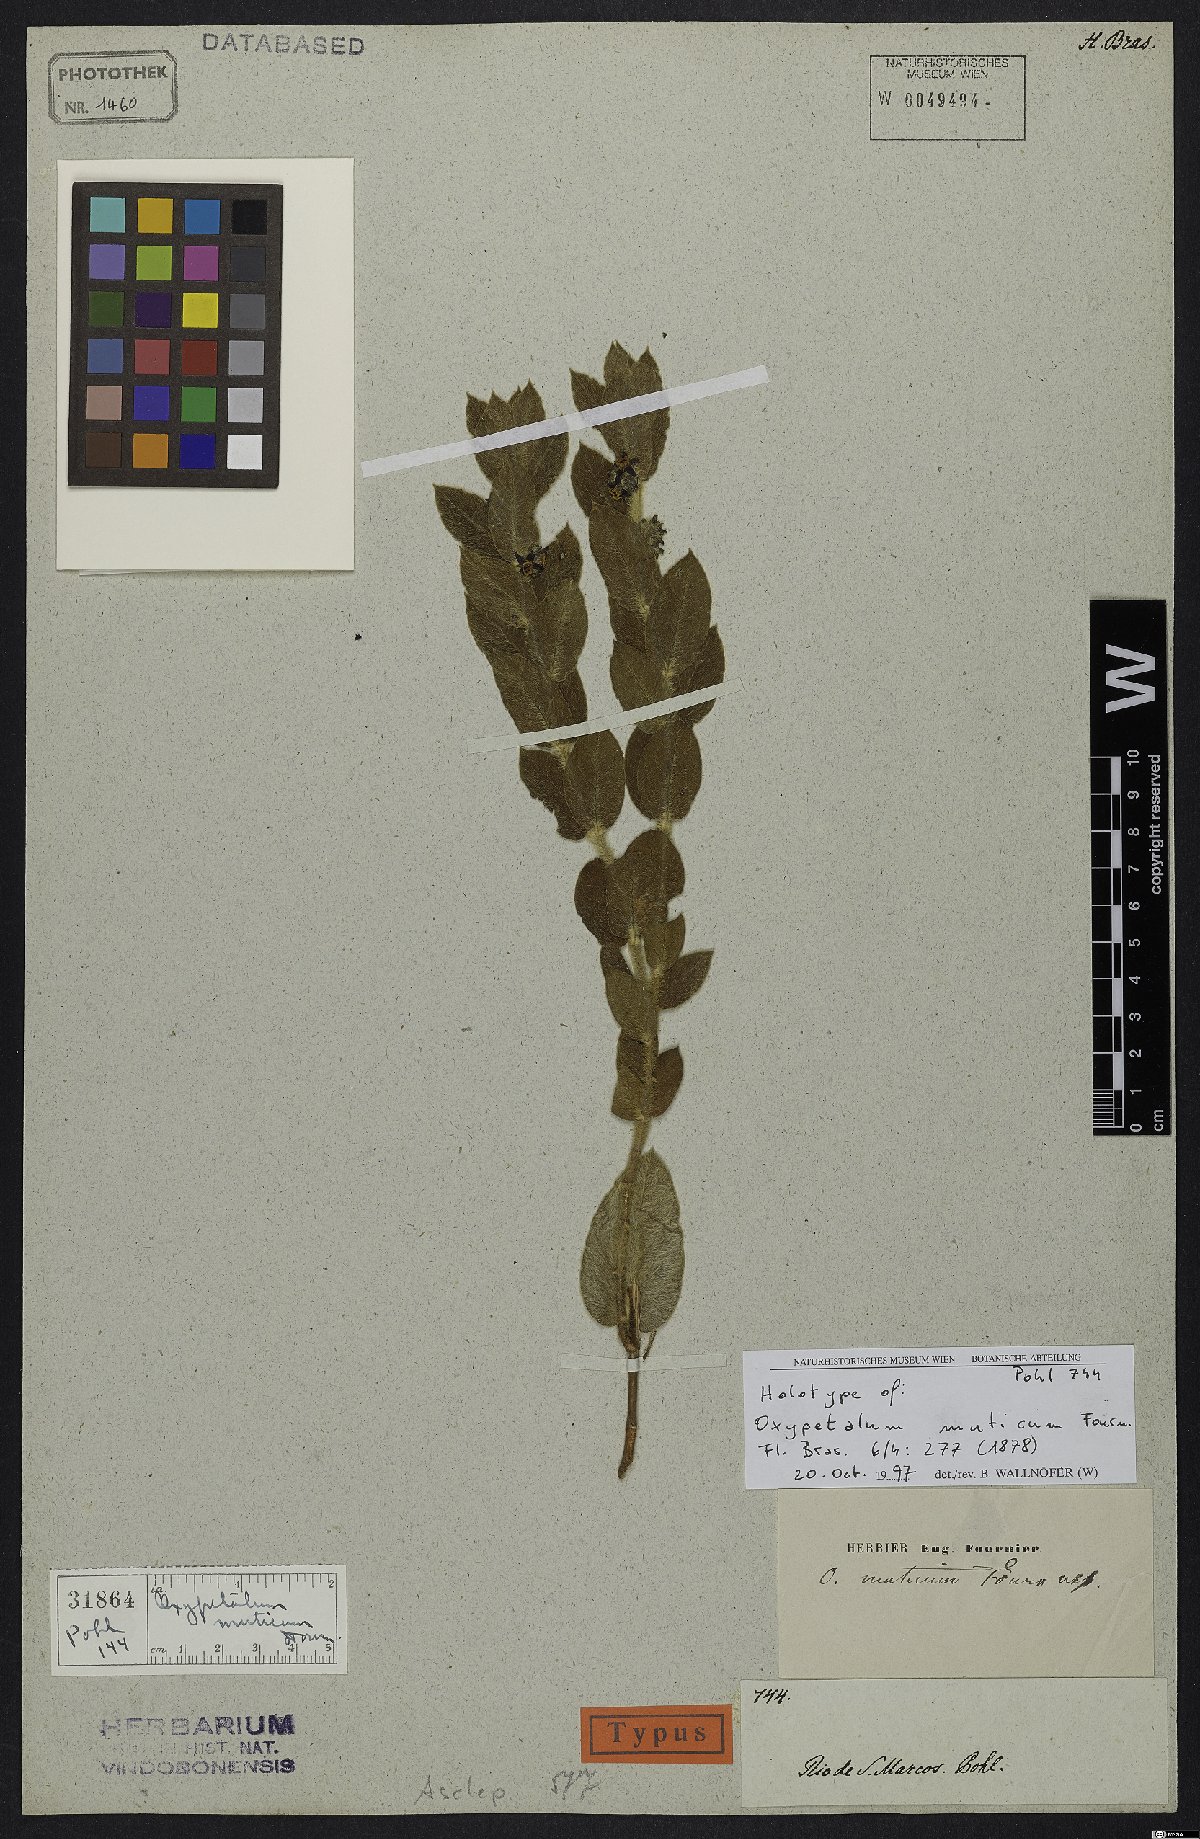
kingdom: Plantae
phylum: Tracheophyta
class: Magnoliopsida
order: Gentianales
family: Apocynaceae
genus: Oxypetalum
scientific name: Oxypetalum muticum
